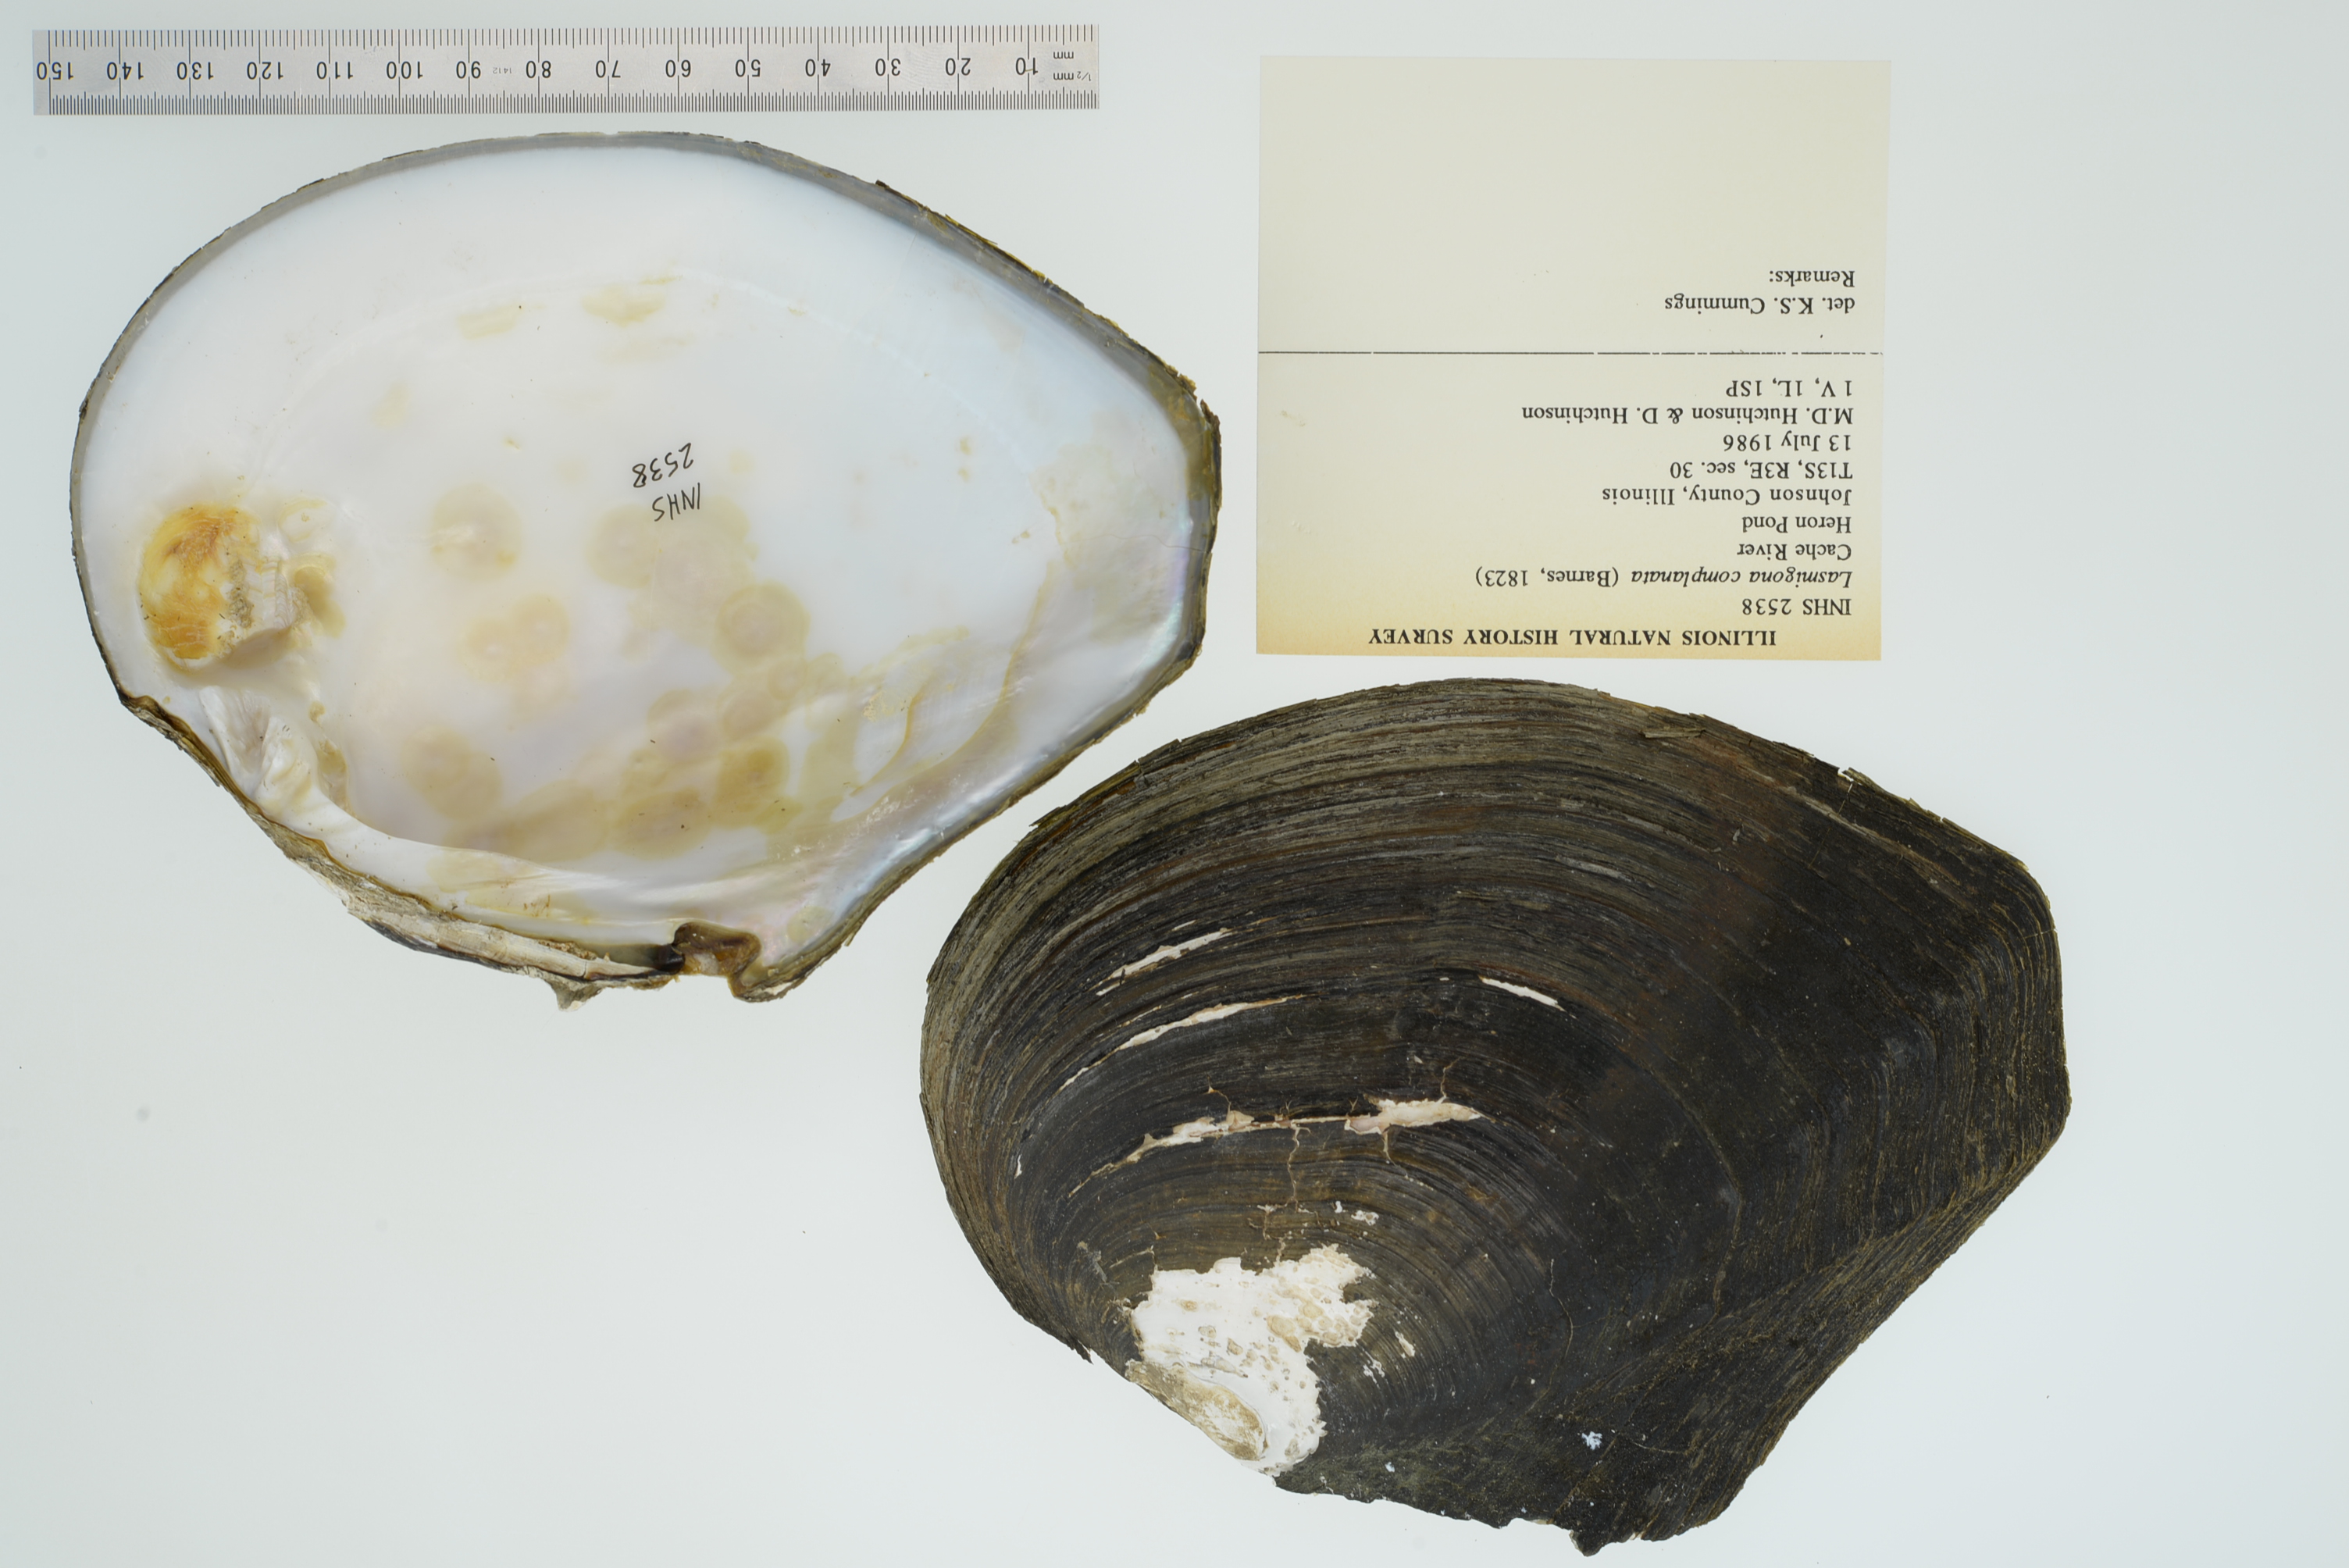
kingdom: Animalia
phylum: Mollusca
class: Bivalvia
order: Unionida
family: Unionidae
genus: Lasmigona
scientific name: Lasmigona complanata
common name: White heelsplitter
